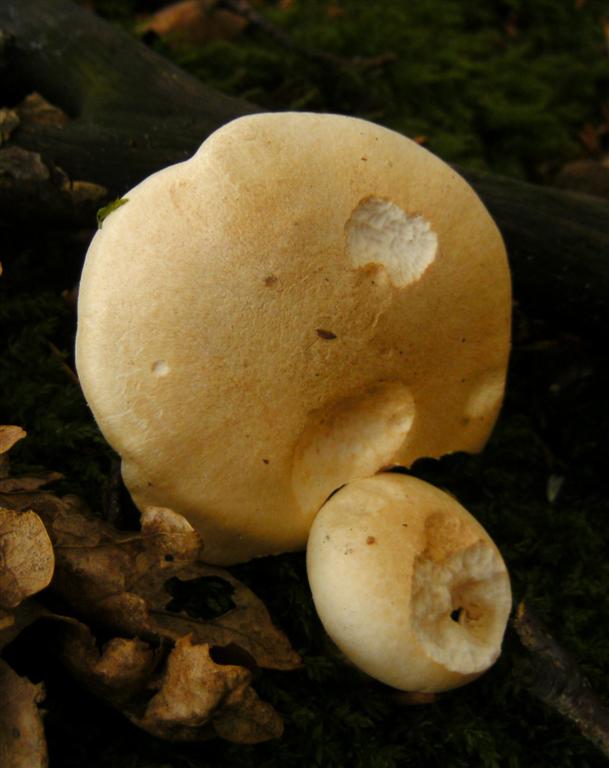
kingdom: Fungi
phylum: Basidiomycota
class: Agaricomycetes
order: Agaricales
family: Hygrophoraceae
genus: Hygrophorus
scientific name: Hygrophorus penarius
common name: spiselig sneglehat
